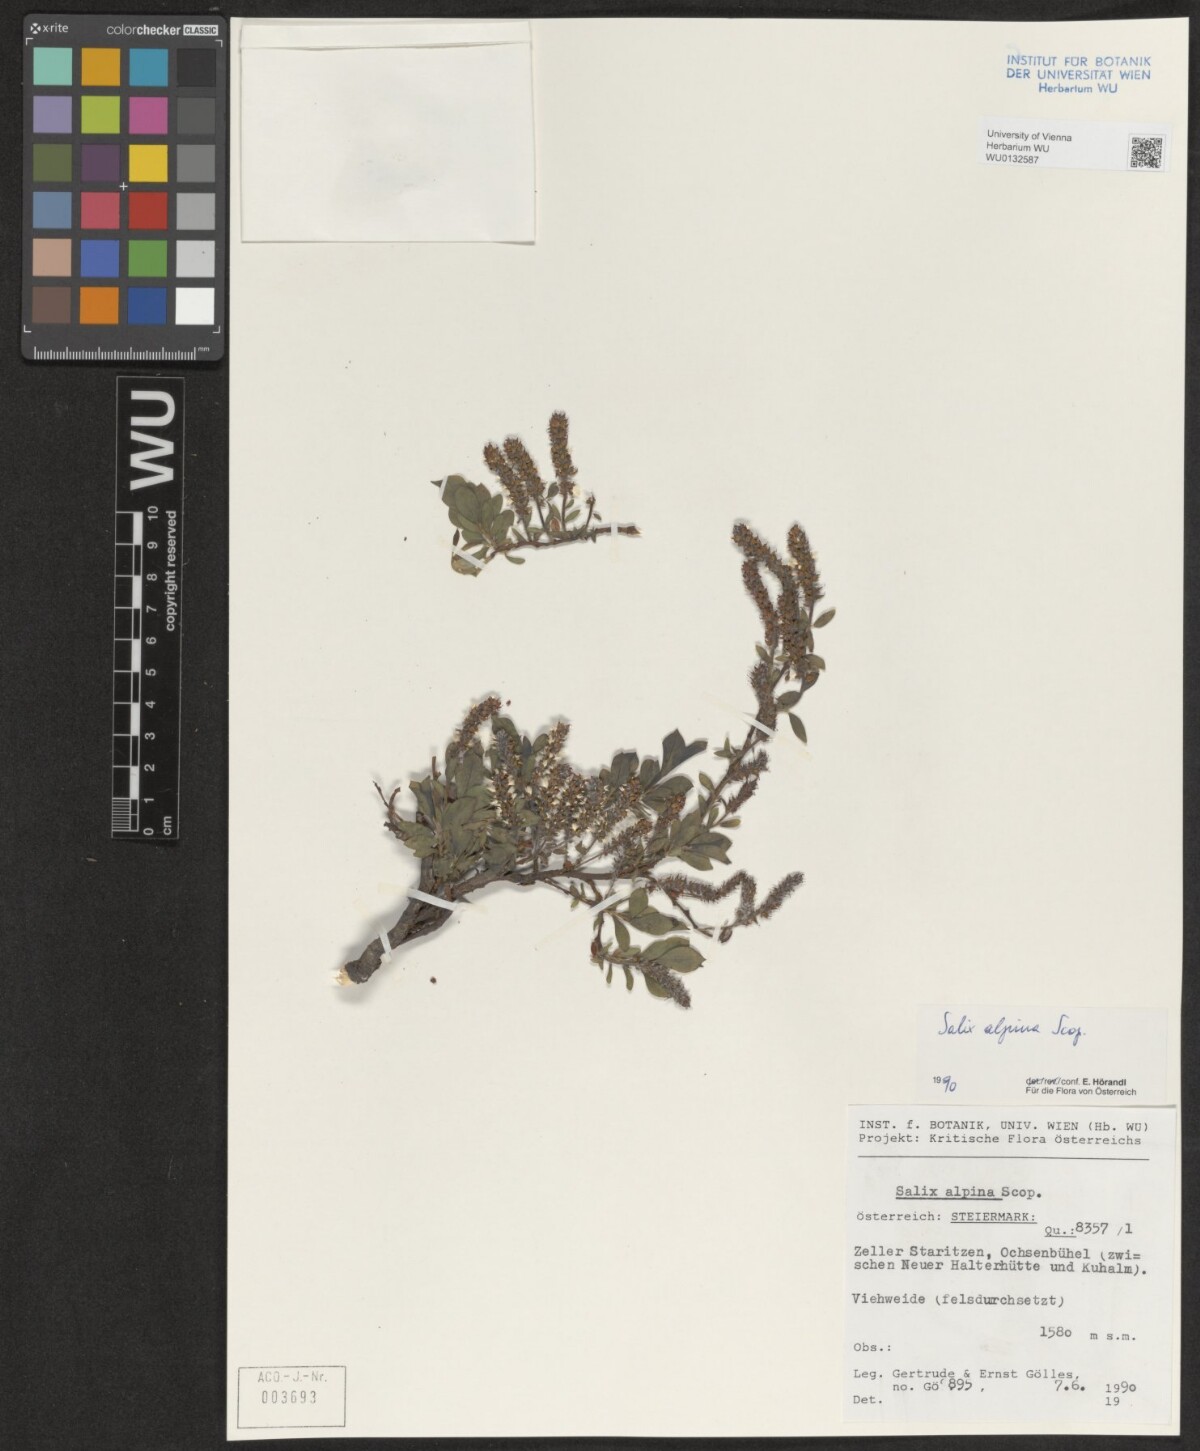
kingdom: Plantae
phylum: Tracheophyta
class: Magnoliopsida
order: Malpighiales
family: Salicaceae
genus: Salix
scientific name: Salix alpina
